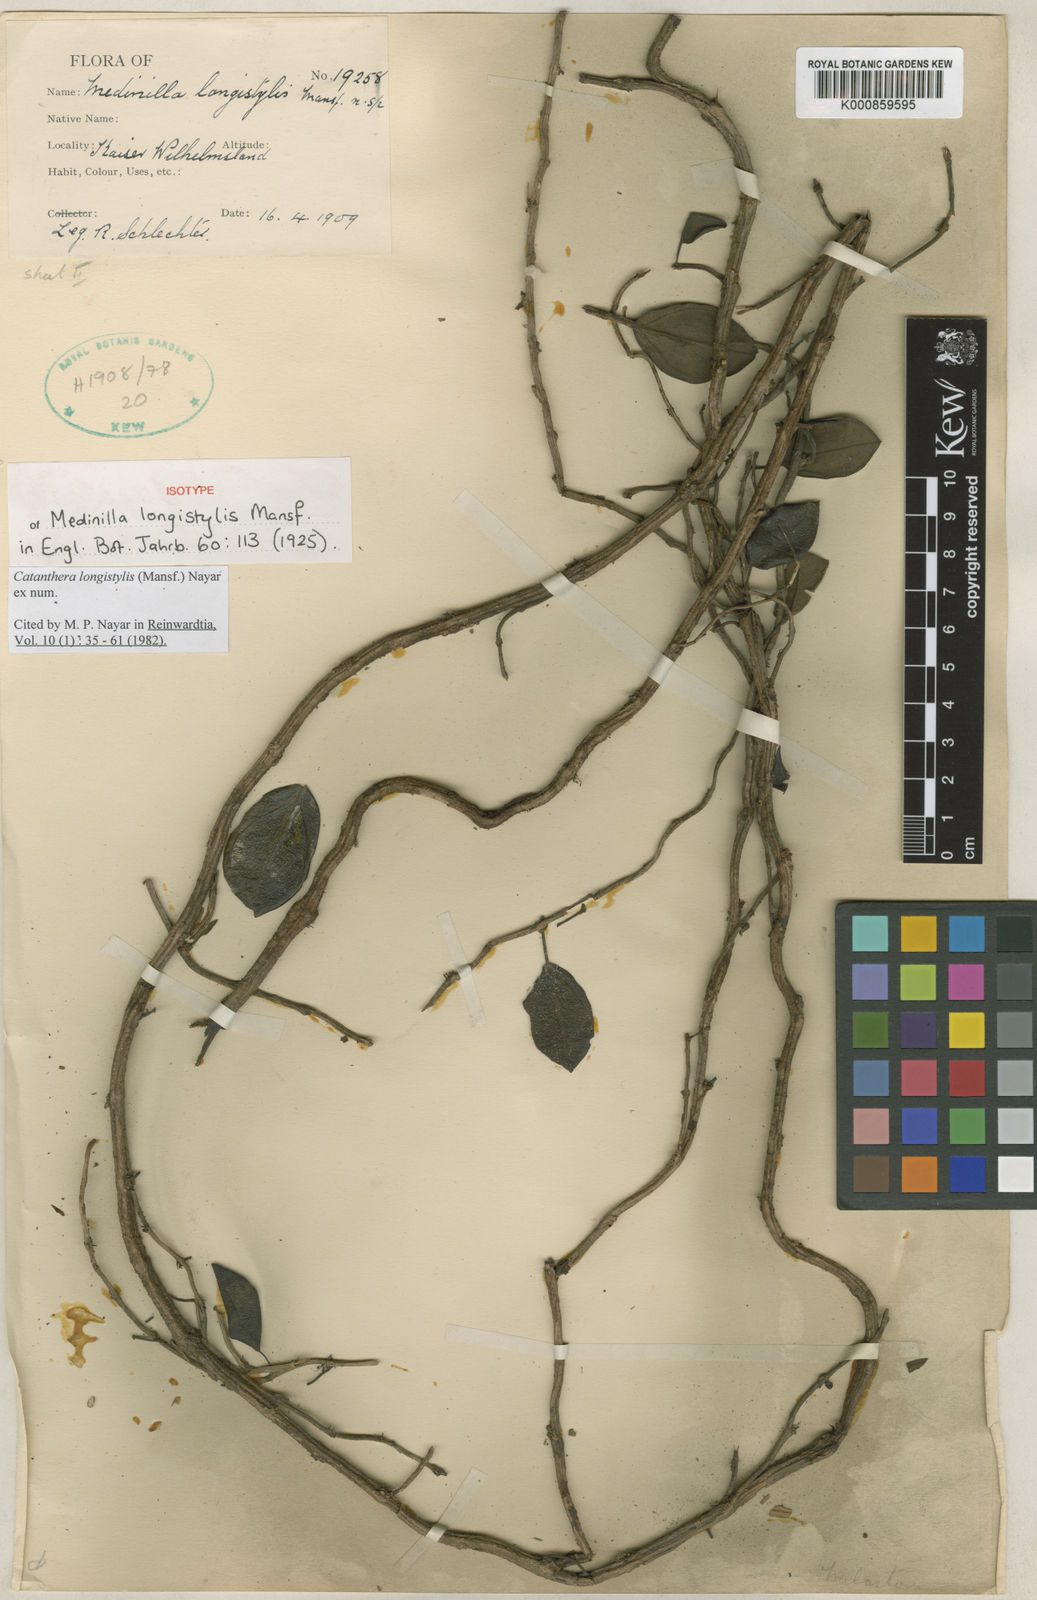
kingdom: Plantae
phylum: Tracheophyta
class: Magnoliopsida
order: Myrtales
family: Melastomataceae
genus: Catanthera
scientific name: Catanthera longistylis
